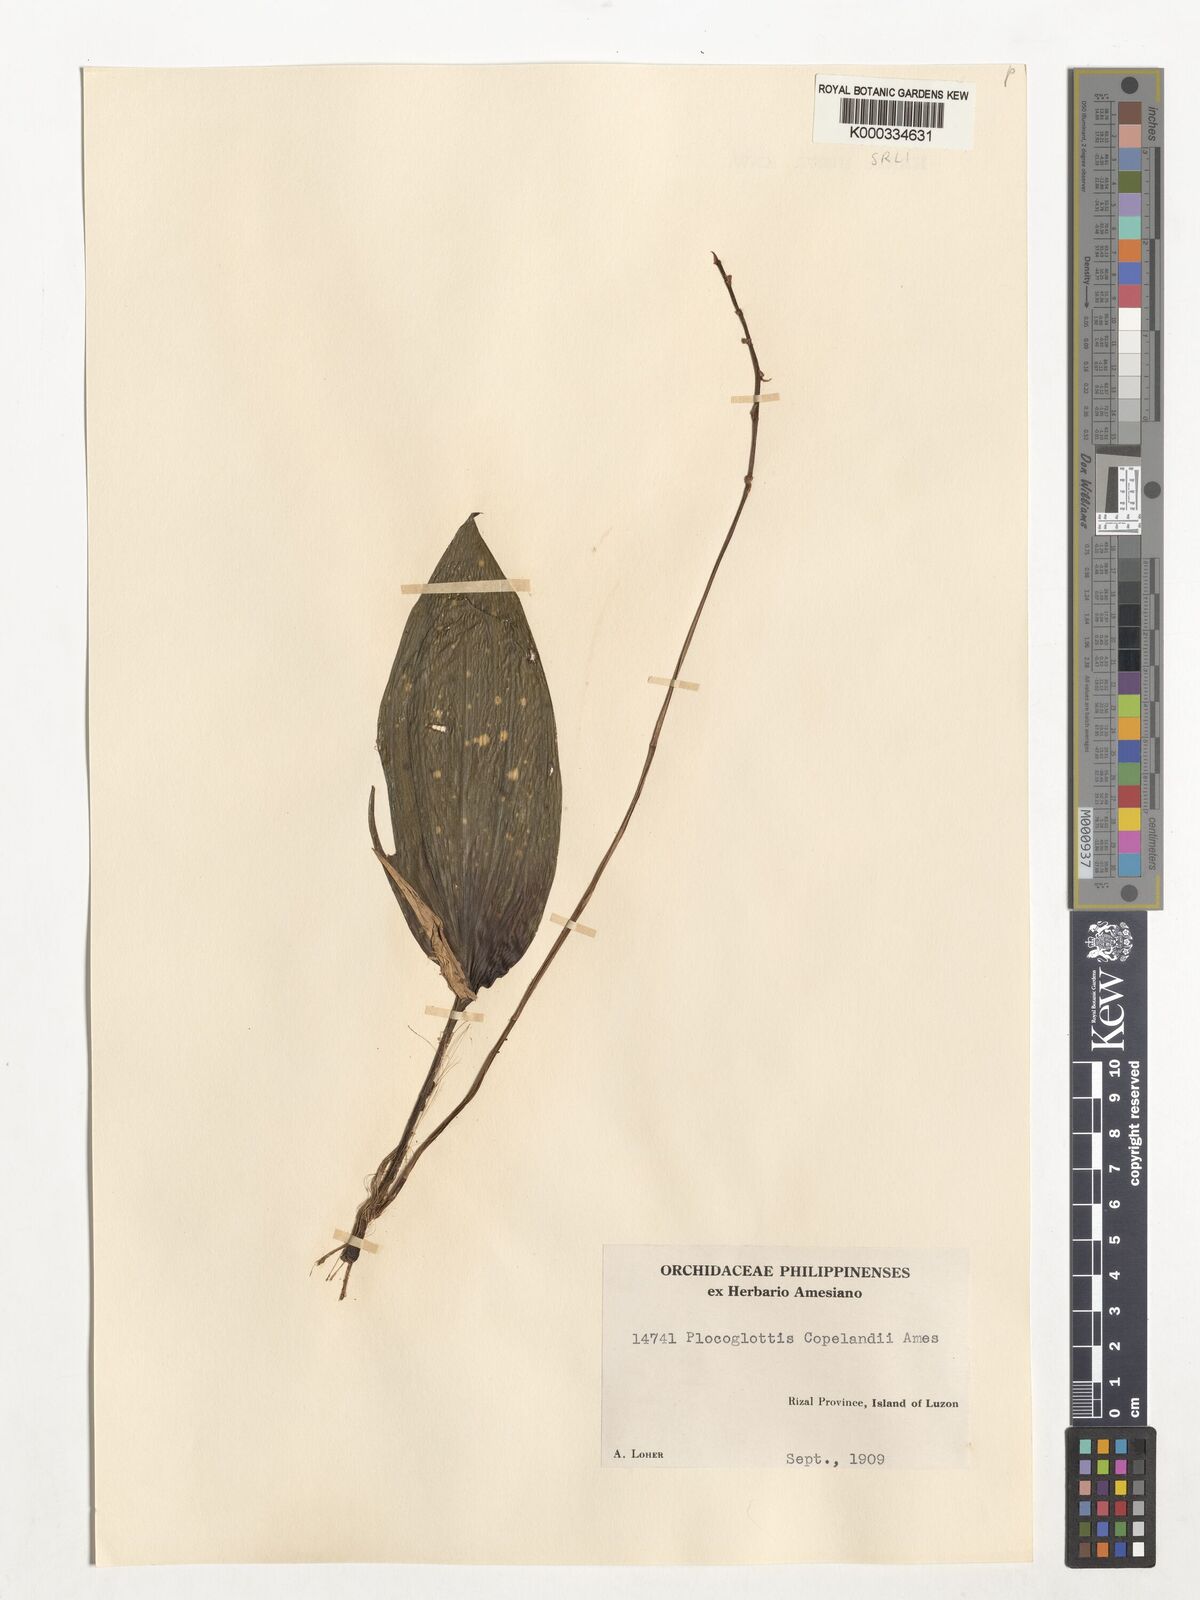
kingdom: Plantae
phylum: Tracheophyta
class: Liliopsida
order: Asparagales
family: Orchidaceae
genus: Plocoglottis
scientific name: Plocoglottis copelandii
